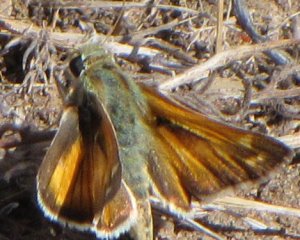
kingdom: Animalia
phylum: Arthropoda
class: Insecta
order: Lepidoptera
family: Hesperiidae
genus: Hesperia
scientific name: Hesperia juba
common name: Juba Skipper
